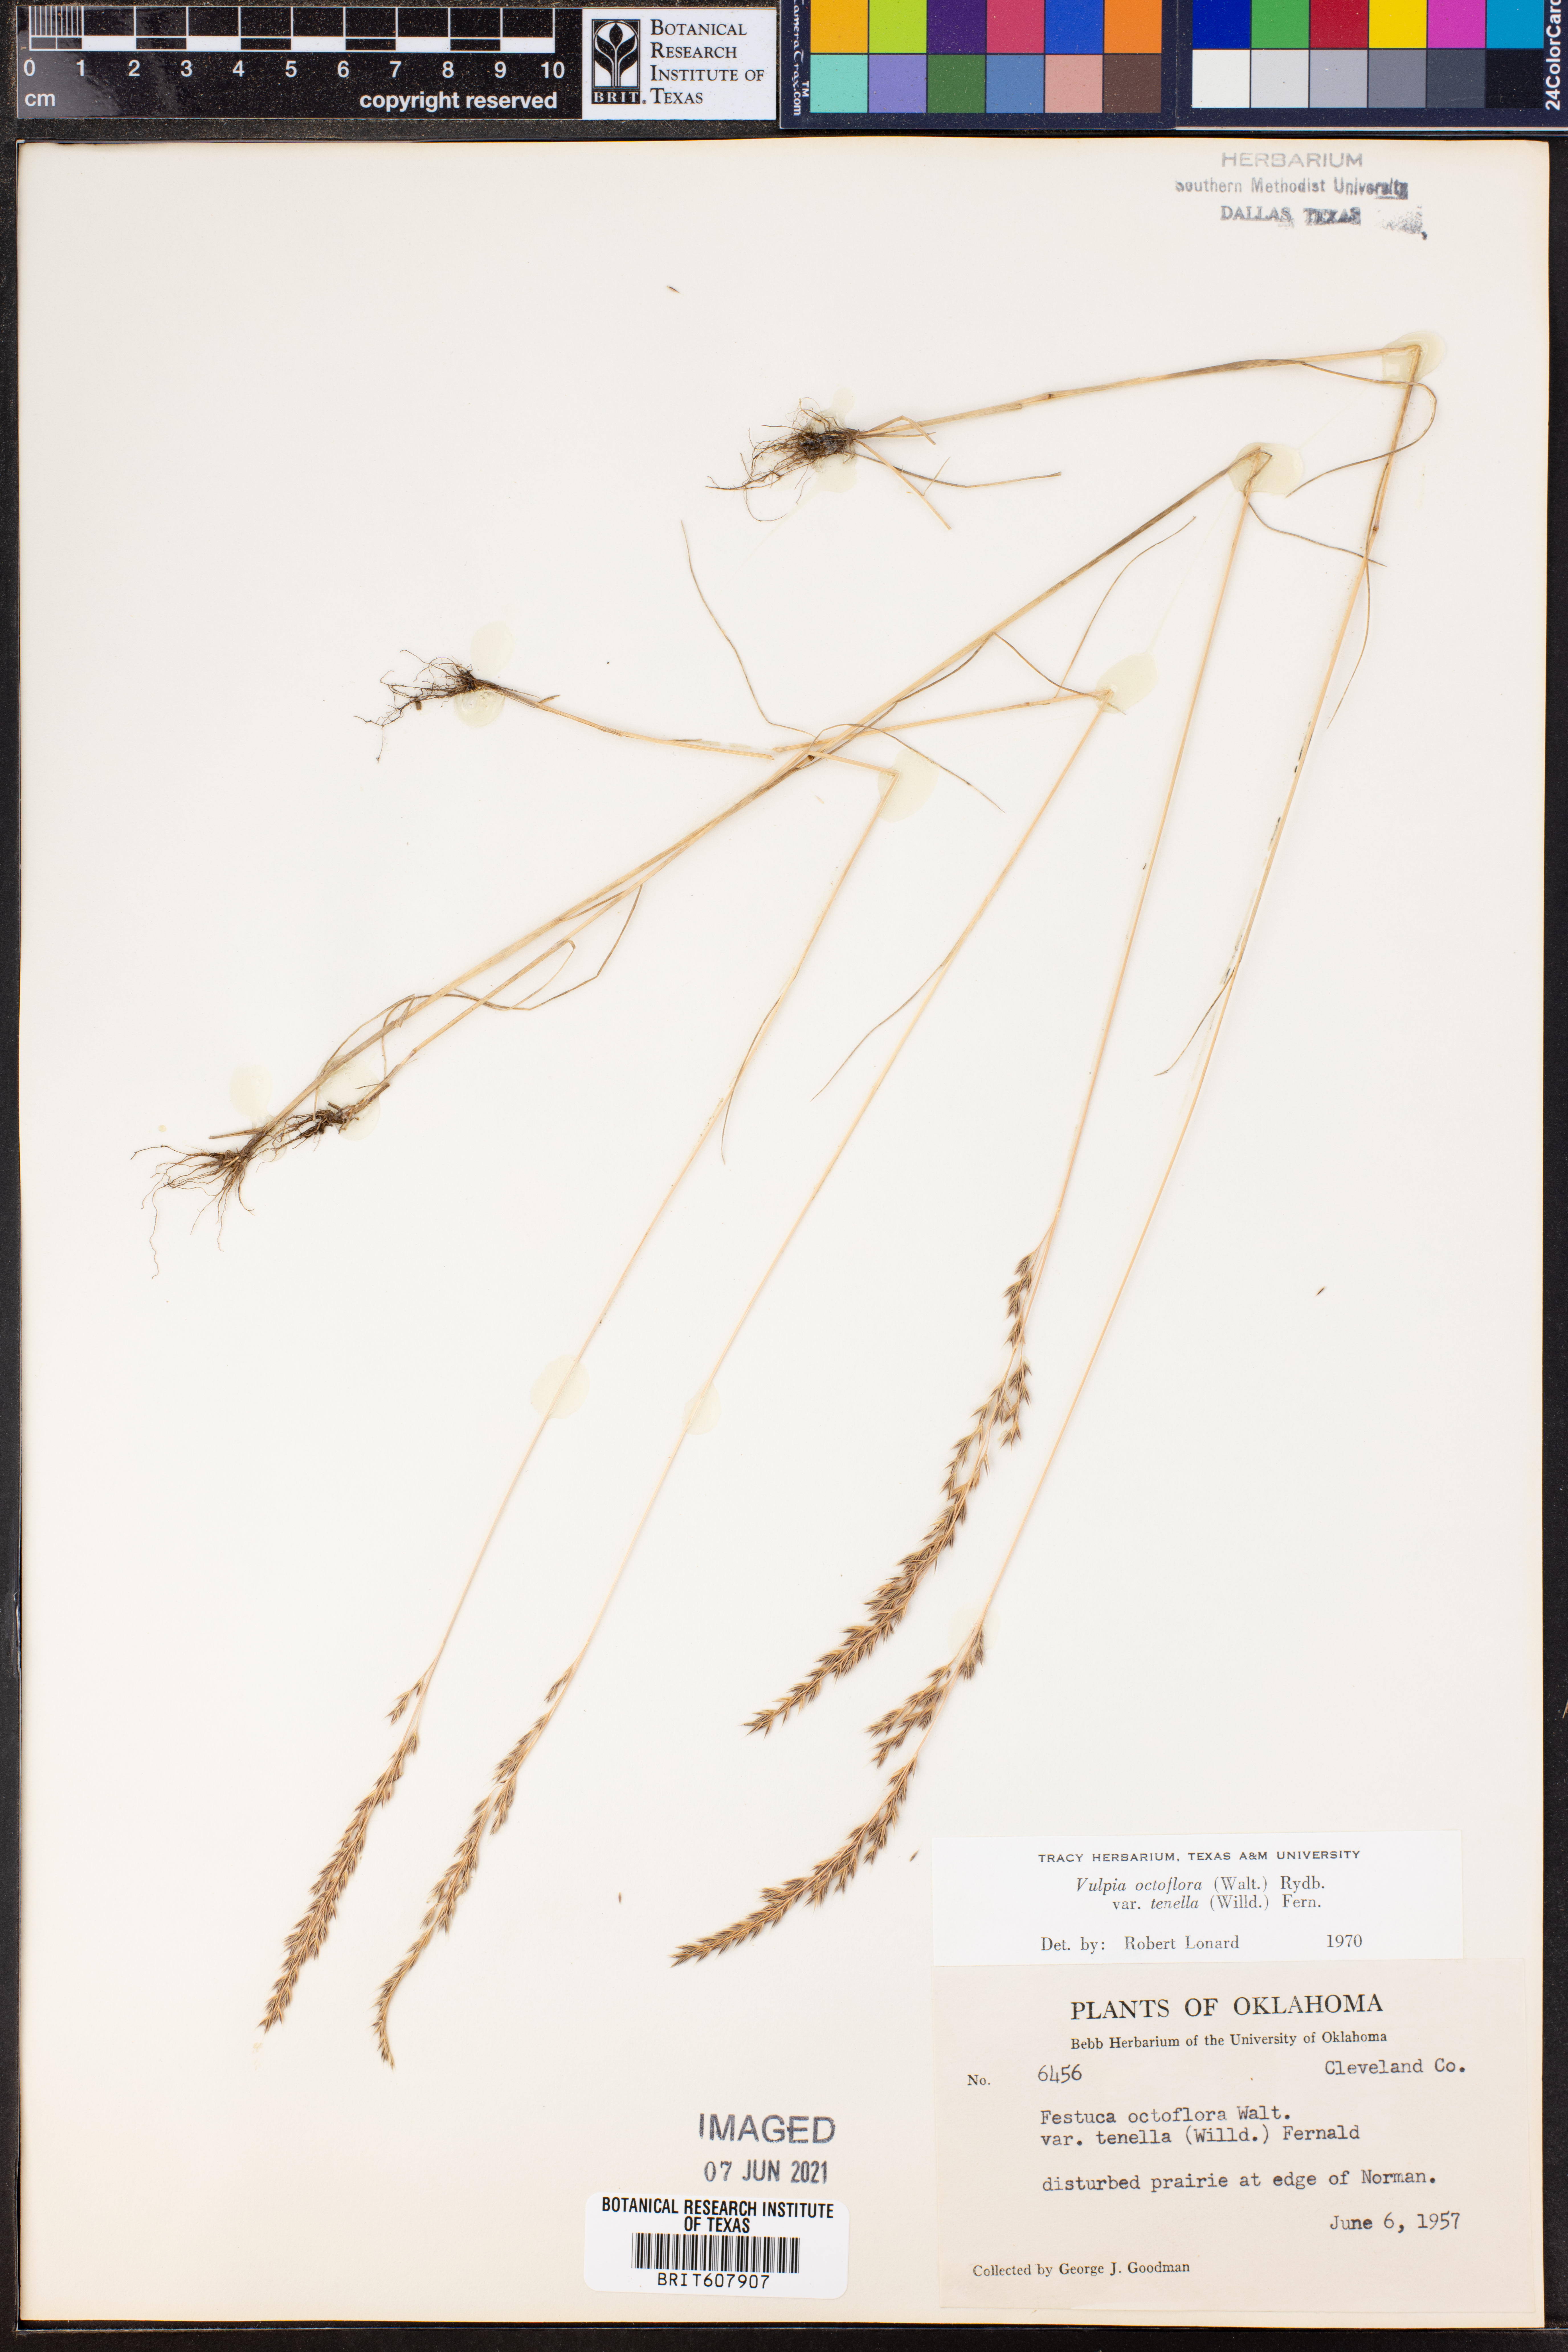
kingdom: Plantae
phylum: Tracheophyta
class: Liliopsida
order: Poales
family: Poaceae
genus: Festuca
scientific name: Festuca octoflora
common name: Sixweeks grass
